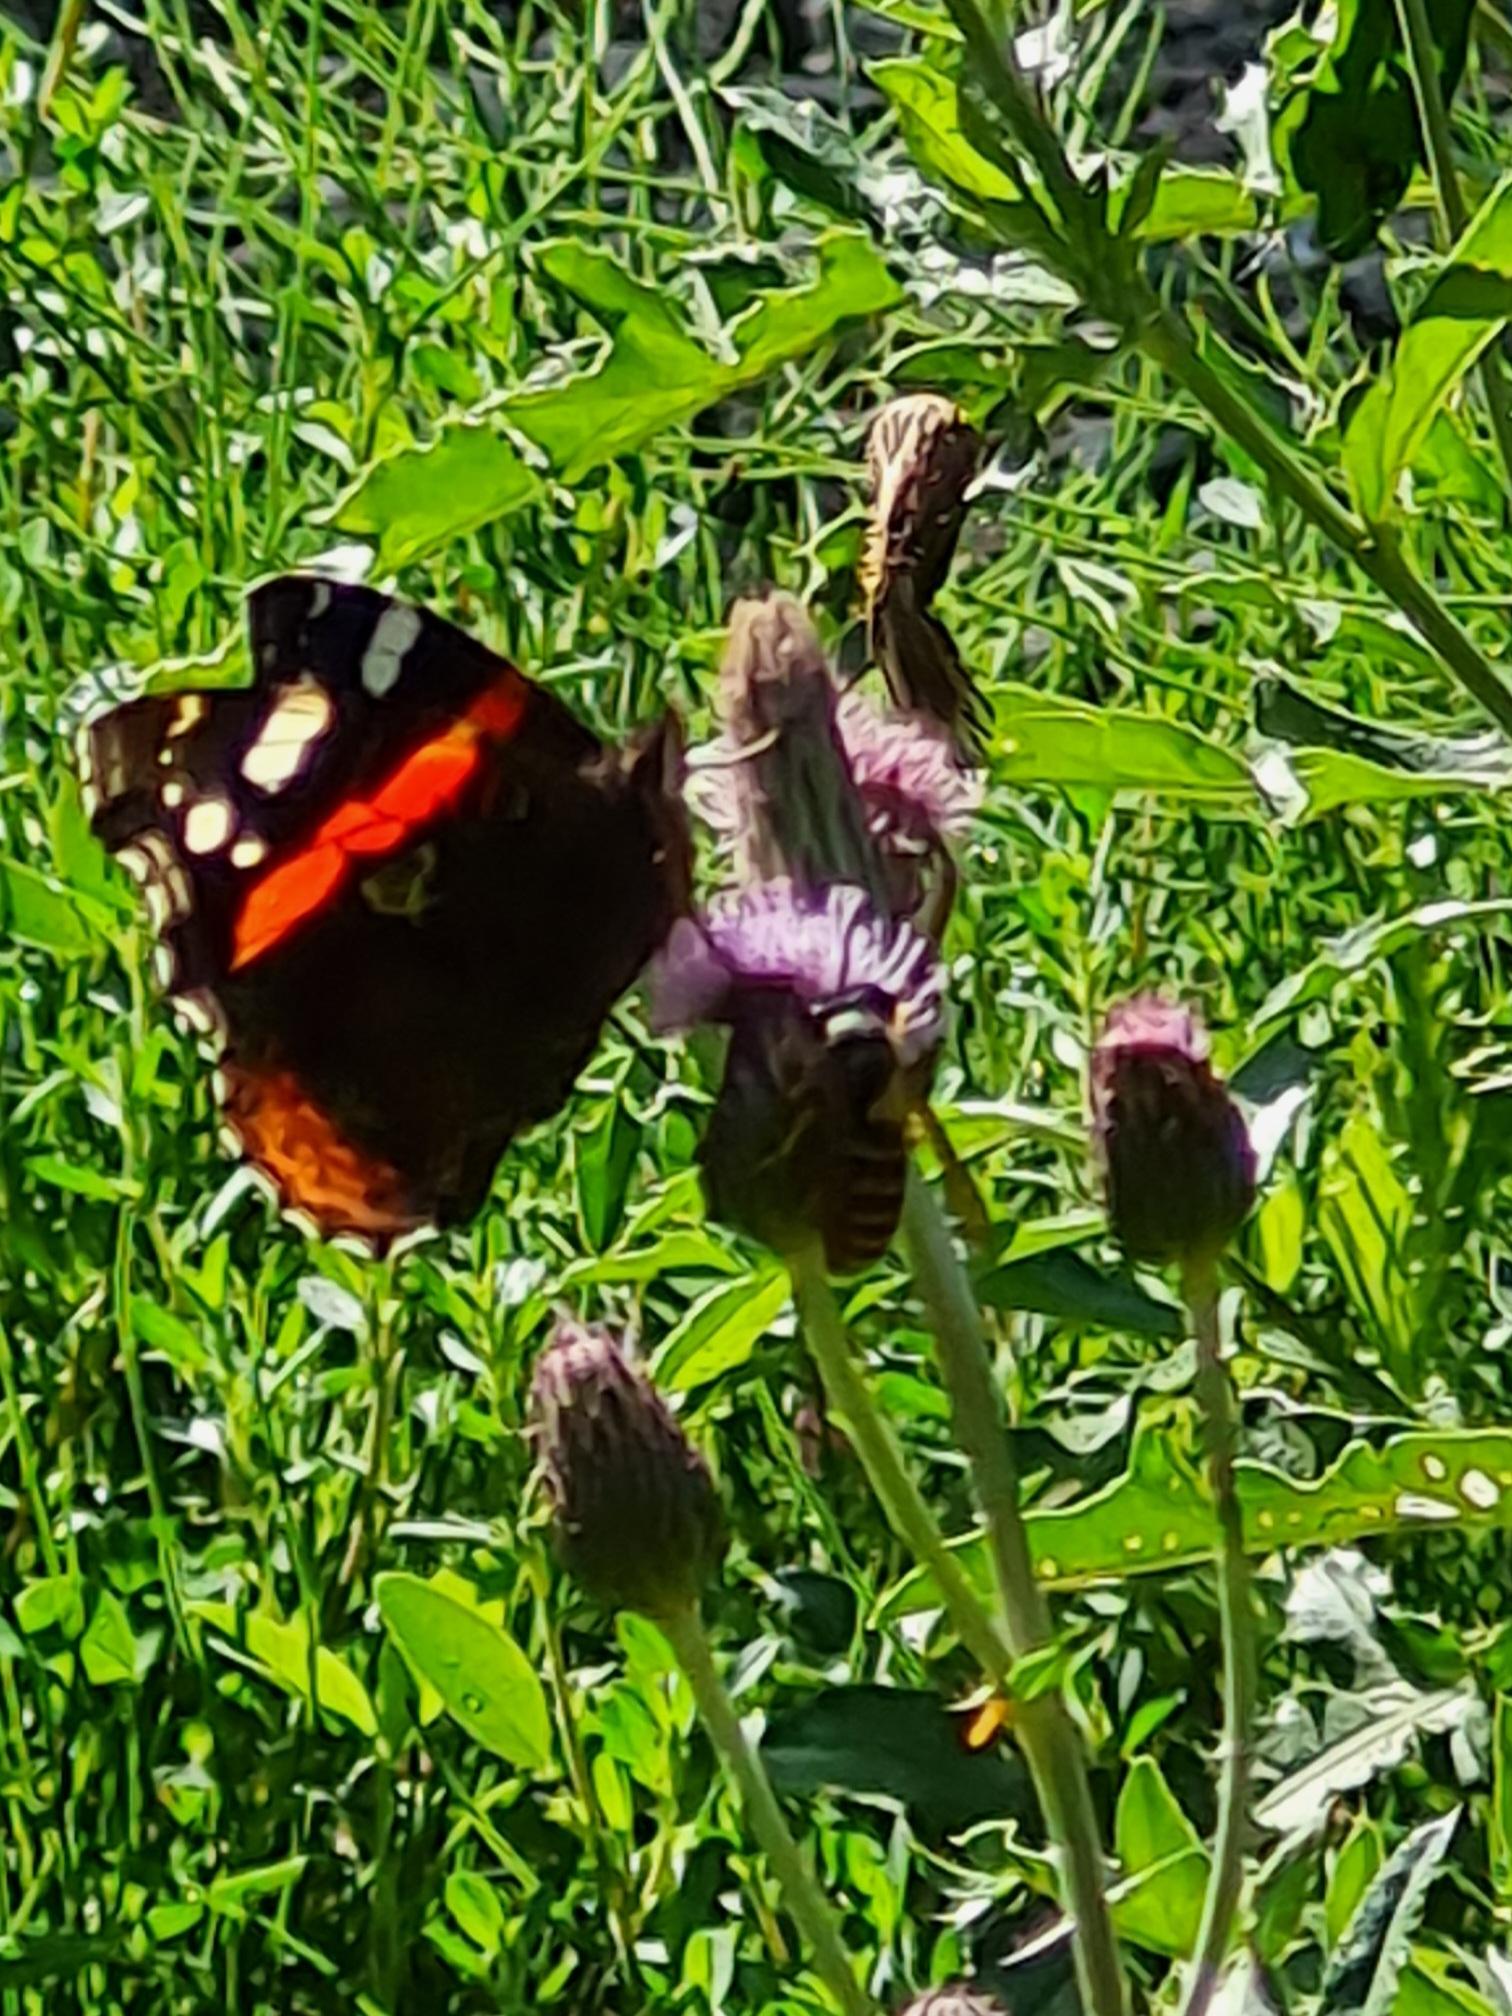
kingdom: Animalia
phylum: Arthropoda
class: Insecta
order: Lepidoptera
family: Nymphalidae
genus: Vanessa
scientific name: Vanessa atalanta
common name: Admiral
